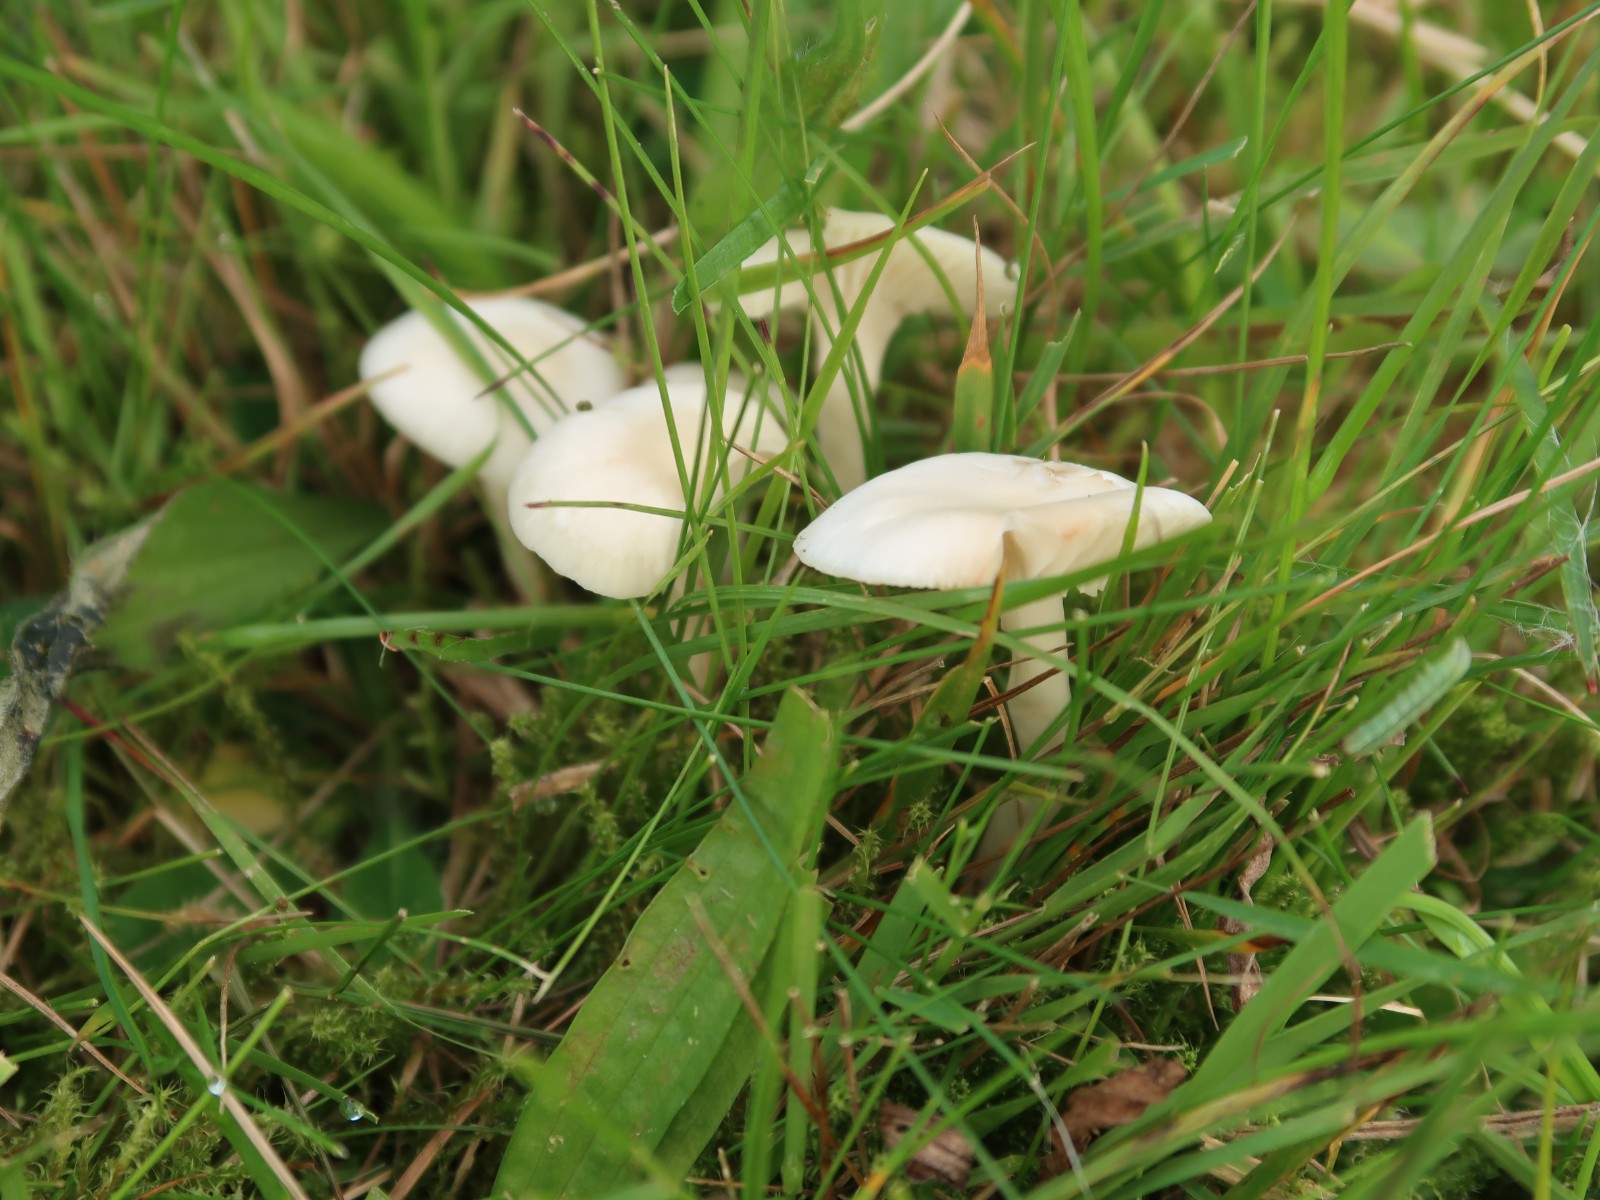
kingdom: Fungi
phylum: Basidiomycota
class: Agaricomycetes
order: Agaricales
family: Hygrophoraceae
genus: Cuphophyllus
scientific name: Cuphophyllus virgineus
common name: snehvid vokshat
